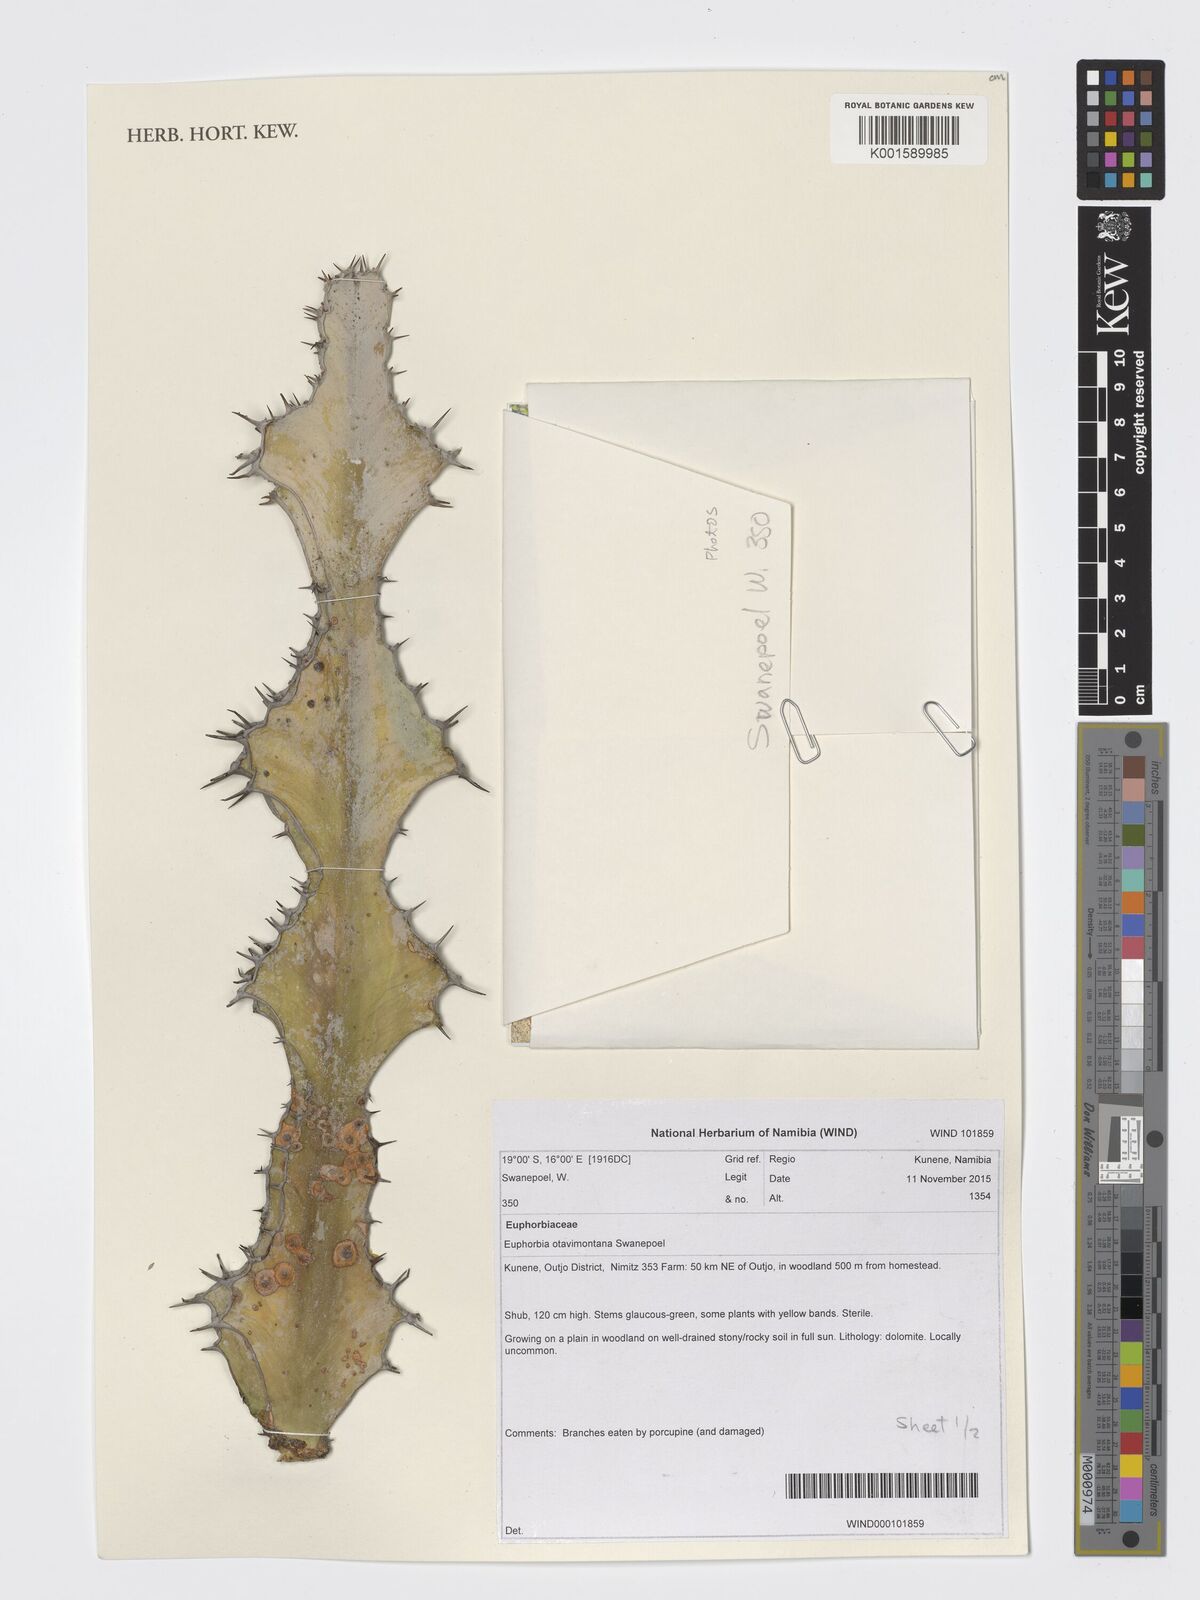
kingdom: Plantae
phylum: Tracheophyta
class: Magnoliopsida
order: Malpighiales
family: Euphorbiaceae
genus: Euphorbia
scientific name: Euphorbia otavibergensis
